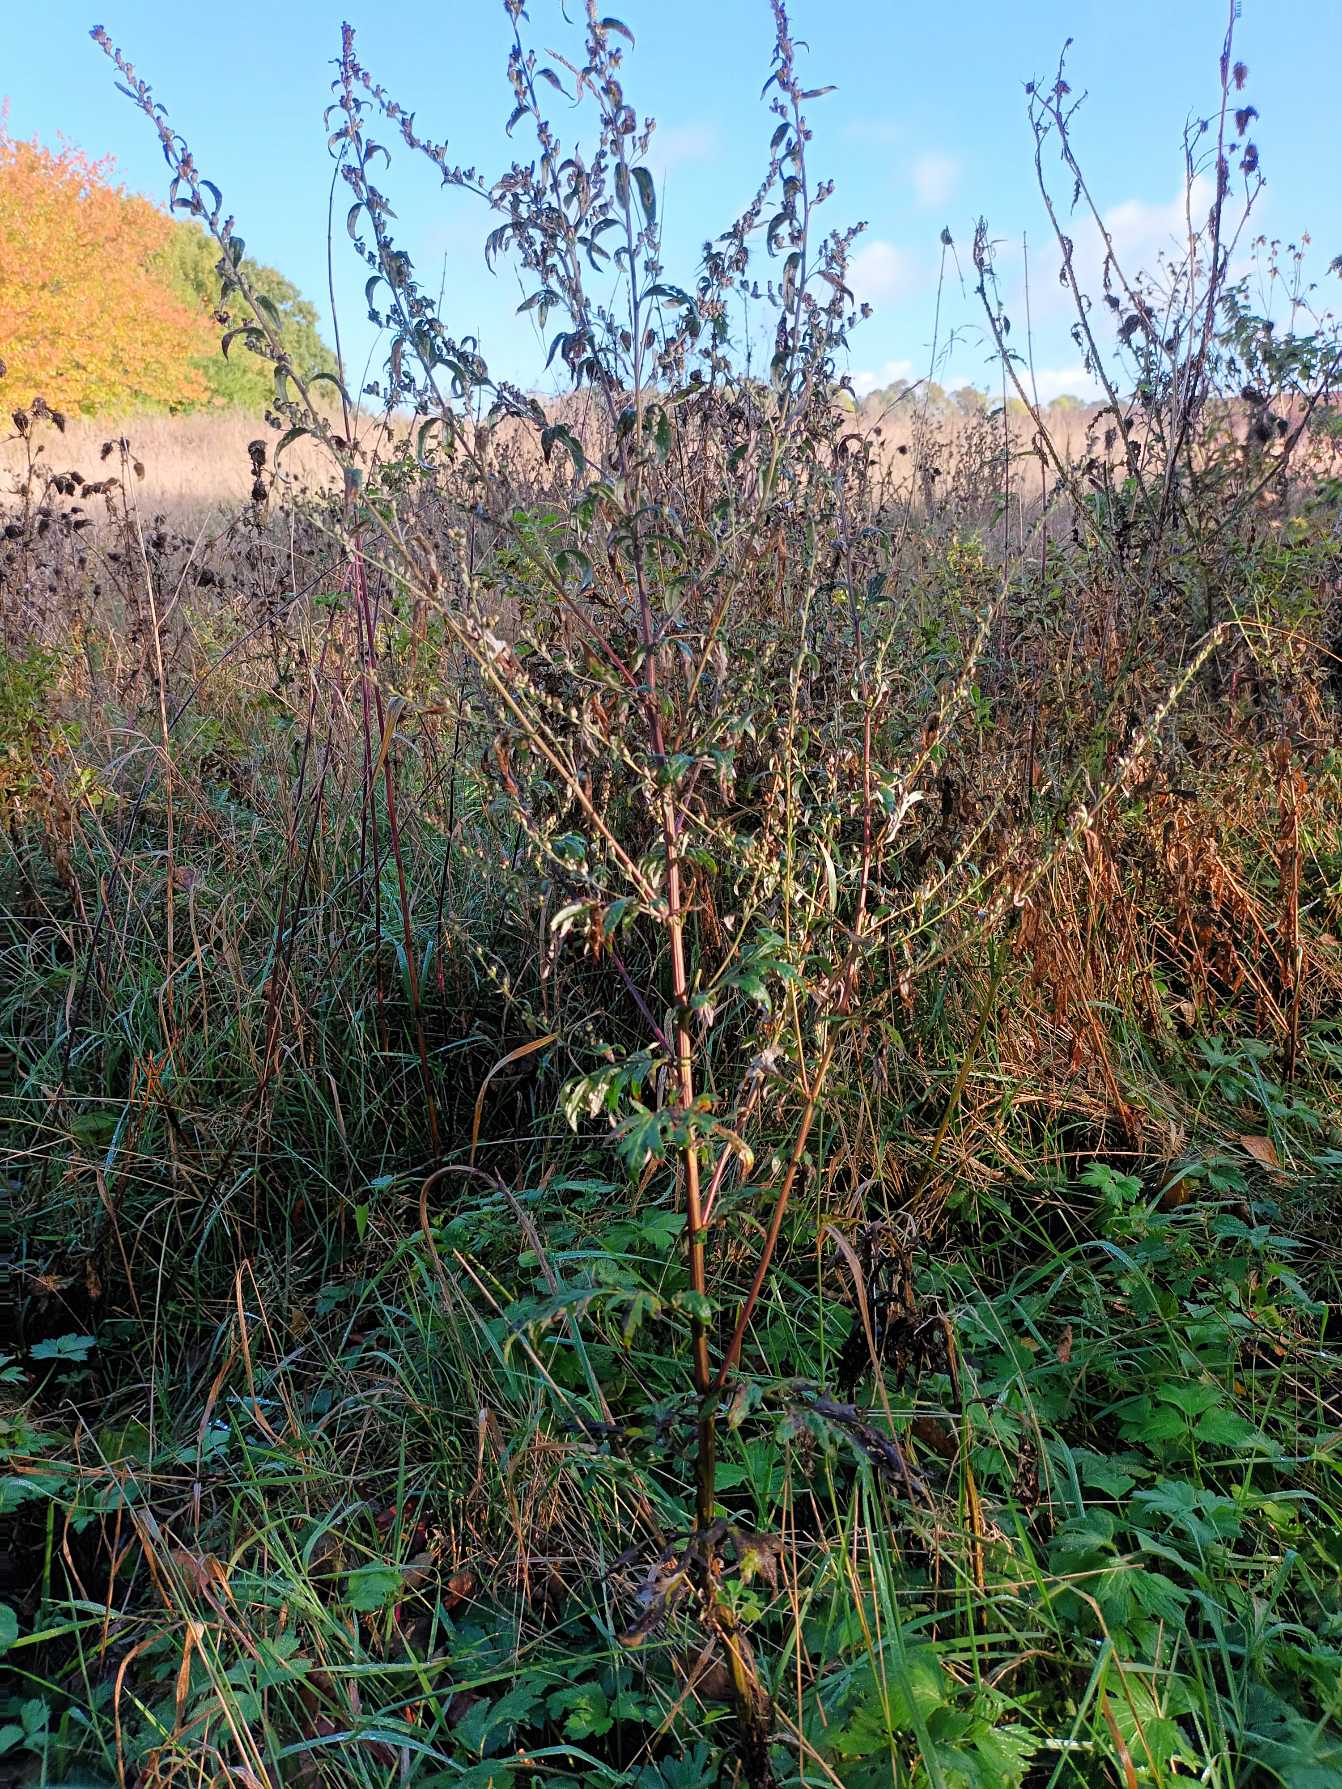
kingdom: Plantae
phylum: Tracheophyta
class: Magnoliopsida
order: Asterales
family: Asteraceae
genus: Artemisia
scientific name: Artemisia vulgaris
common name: Grå-bynke
